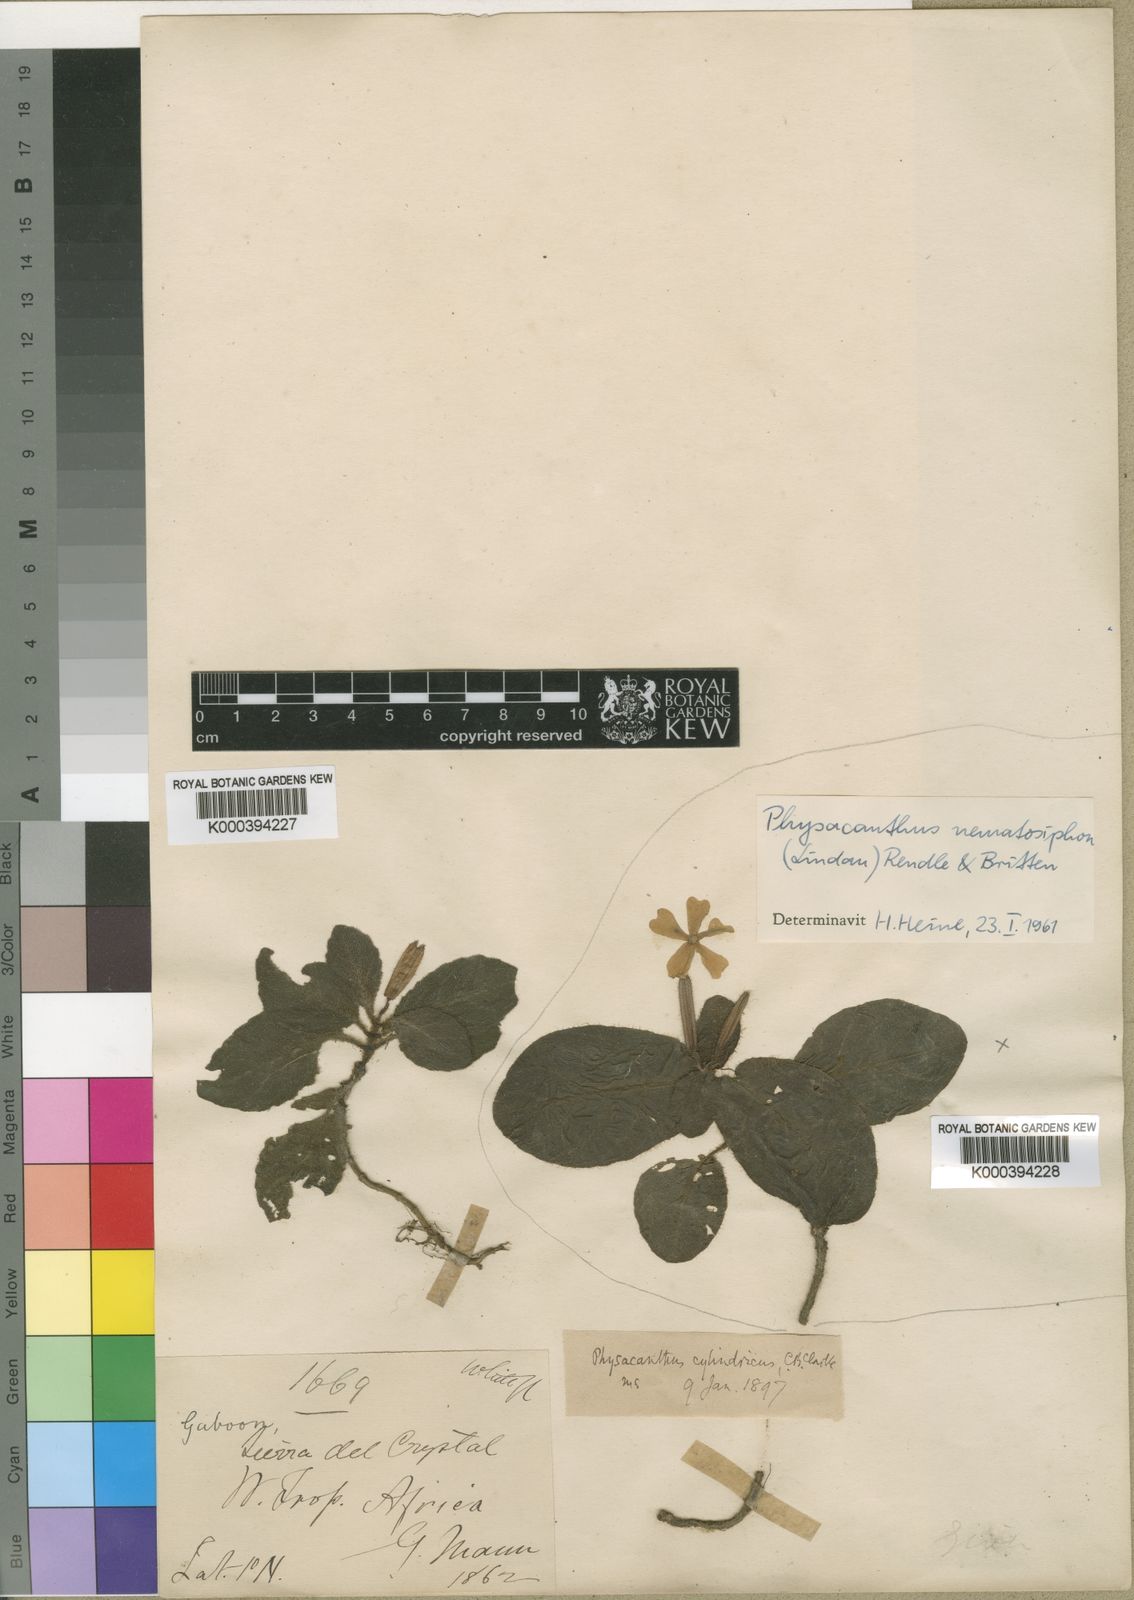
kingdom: Plantae
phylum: Tracheophyta
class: Magnoliopsida
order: Lamiales
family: Acanthaceae
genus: Physacanthus
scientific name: Physacanthus batanganus
